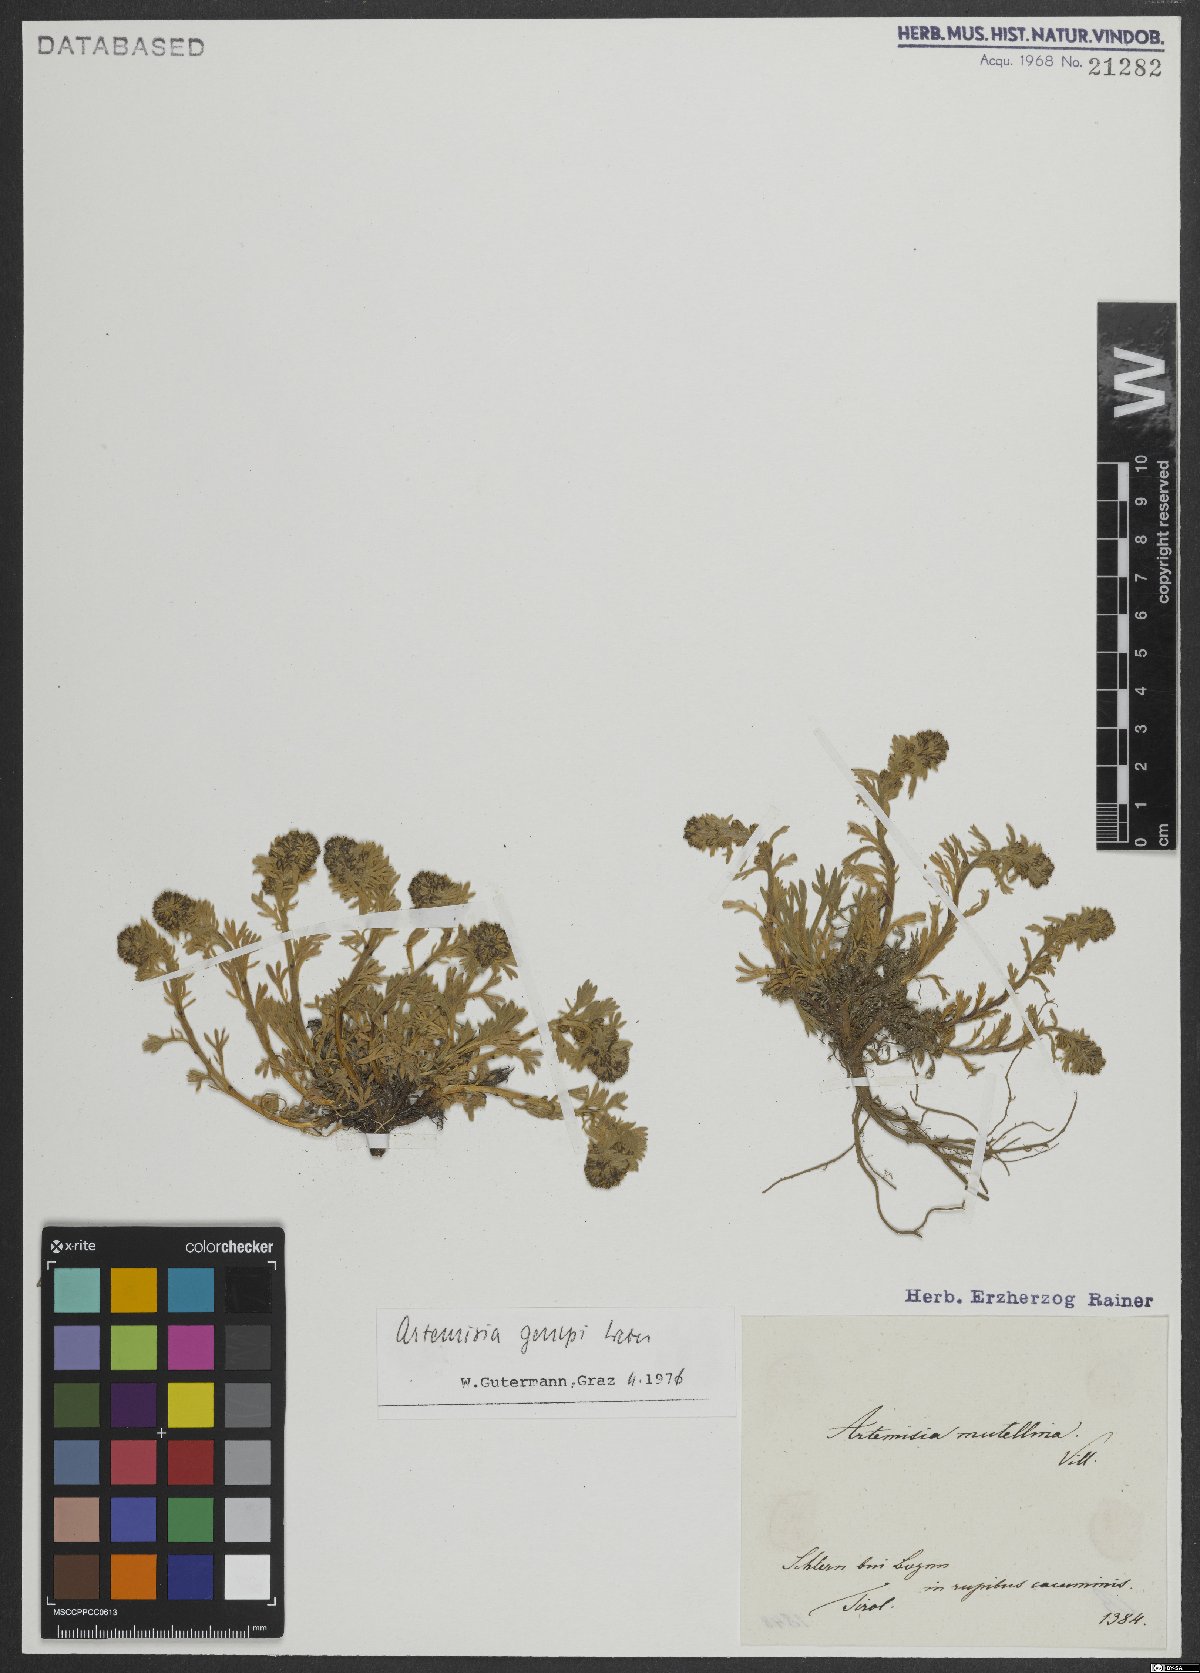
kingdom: Plantae
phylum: Tracheophyta
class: Magnoliopsida
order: Asterales
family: Asteraceae
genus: Artemisia
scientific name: Artemisia genipi
